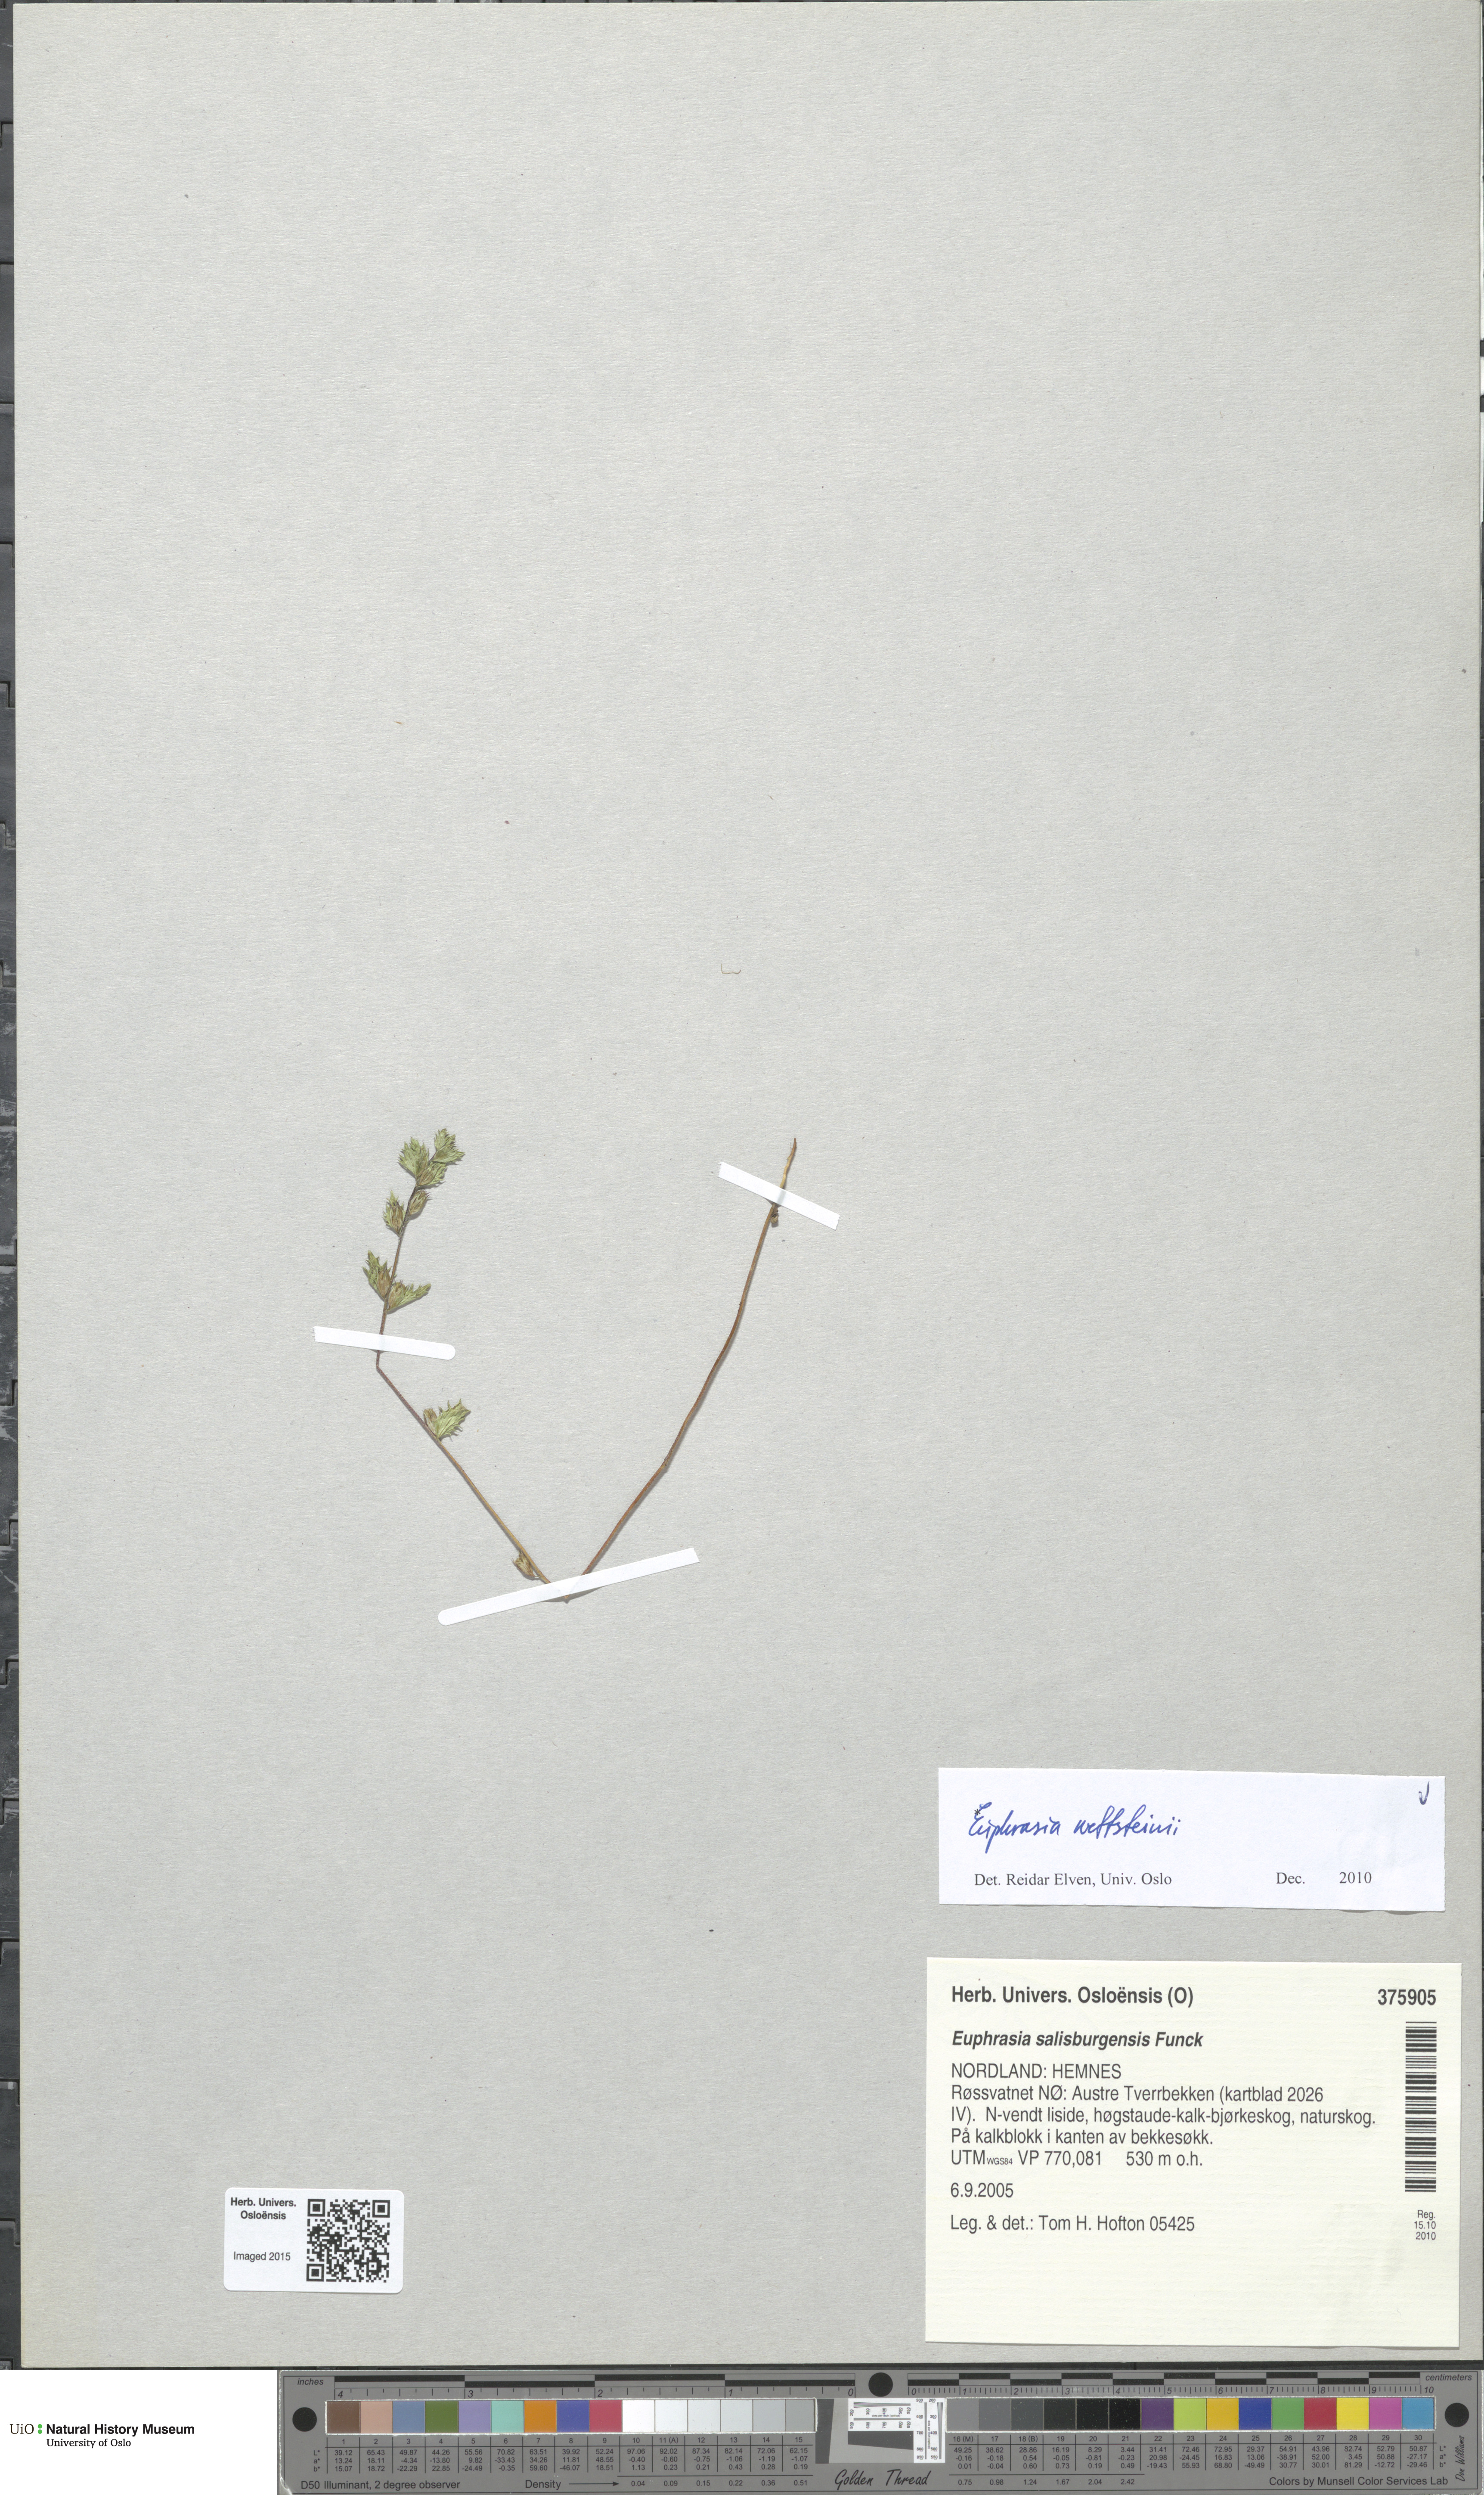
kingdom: Plantae
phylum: Tracheophyta
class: Magnoliopsida
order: Lamiales
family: Orobanchaceae
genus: Euphrasia
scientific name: Euphrasia wettsteinii
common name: Wettstein's eyebright
